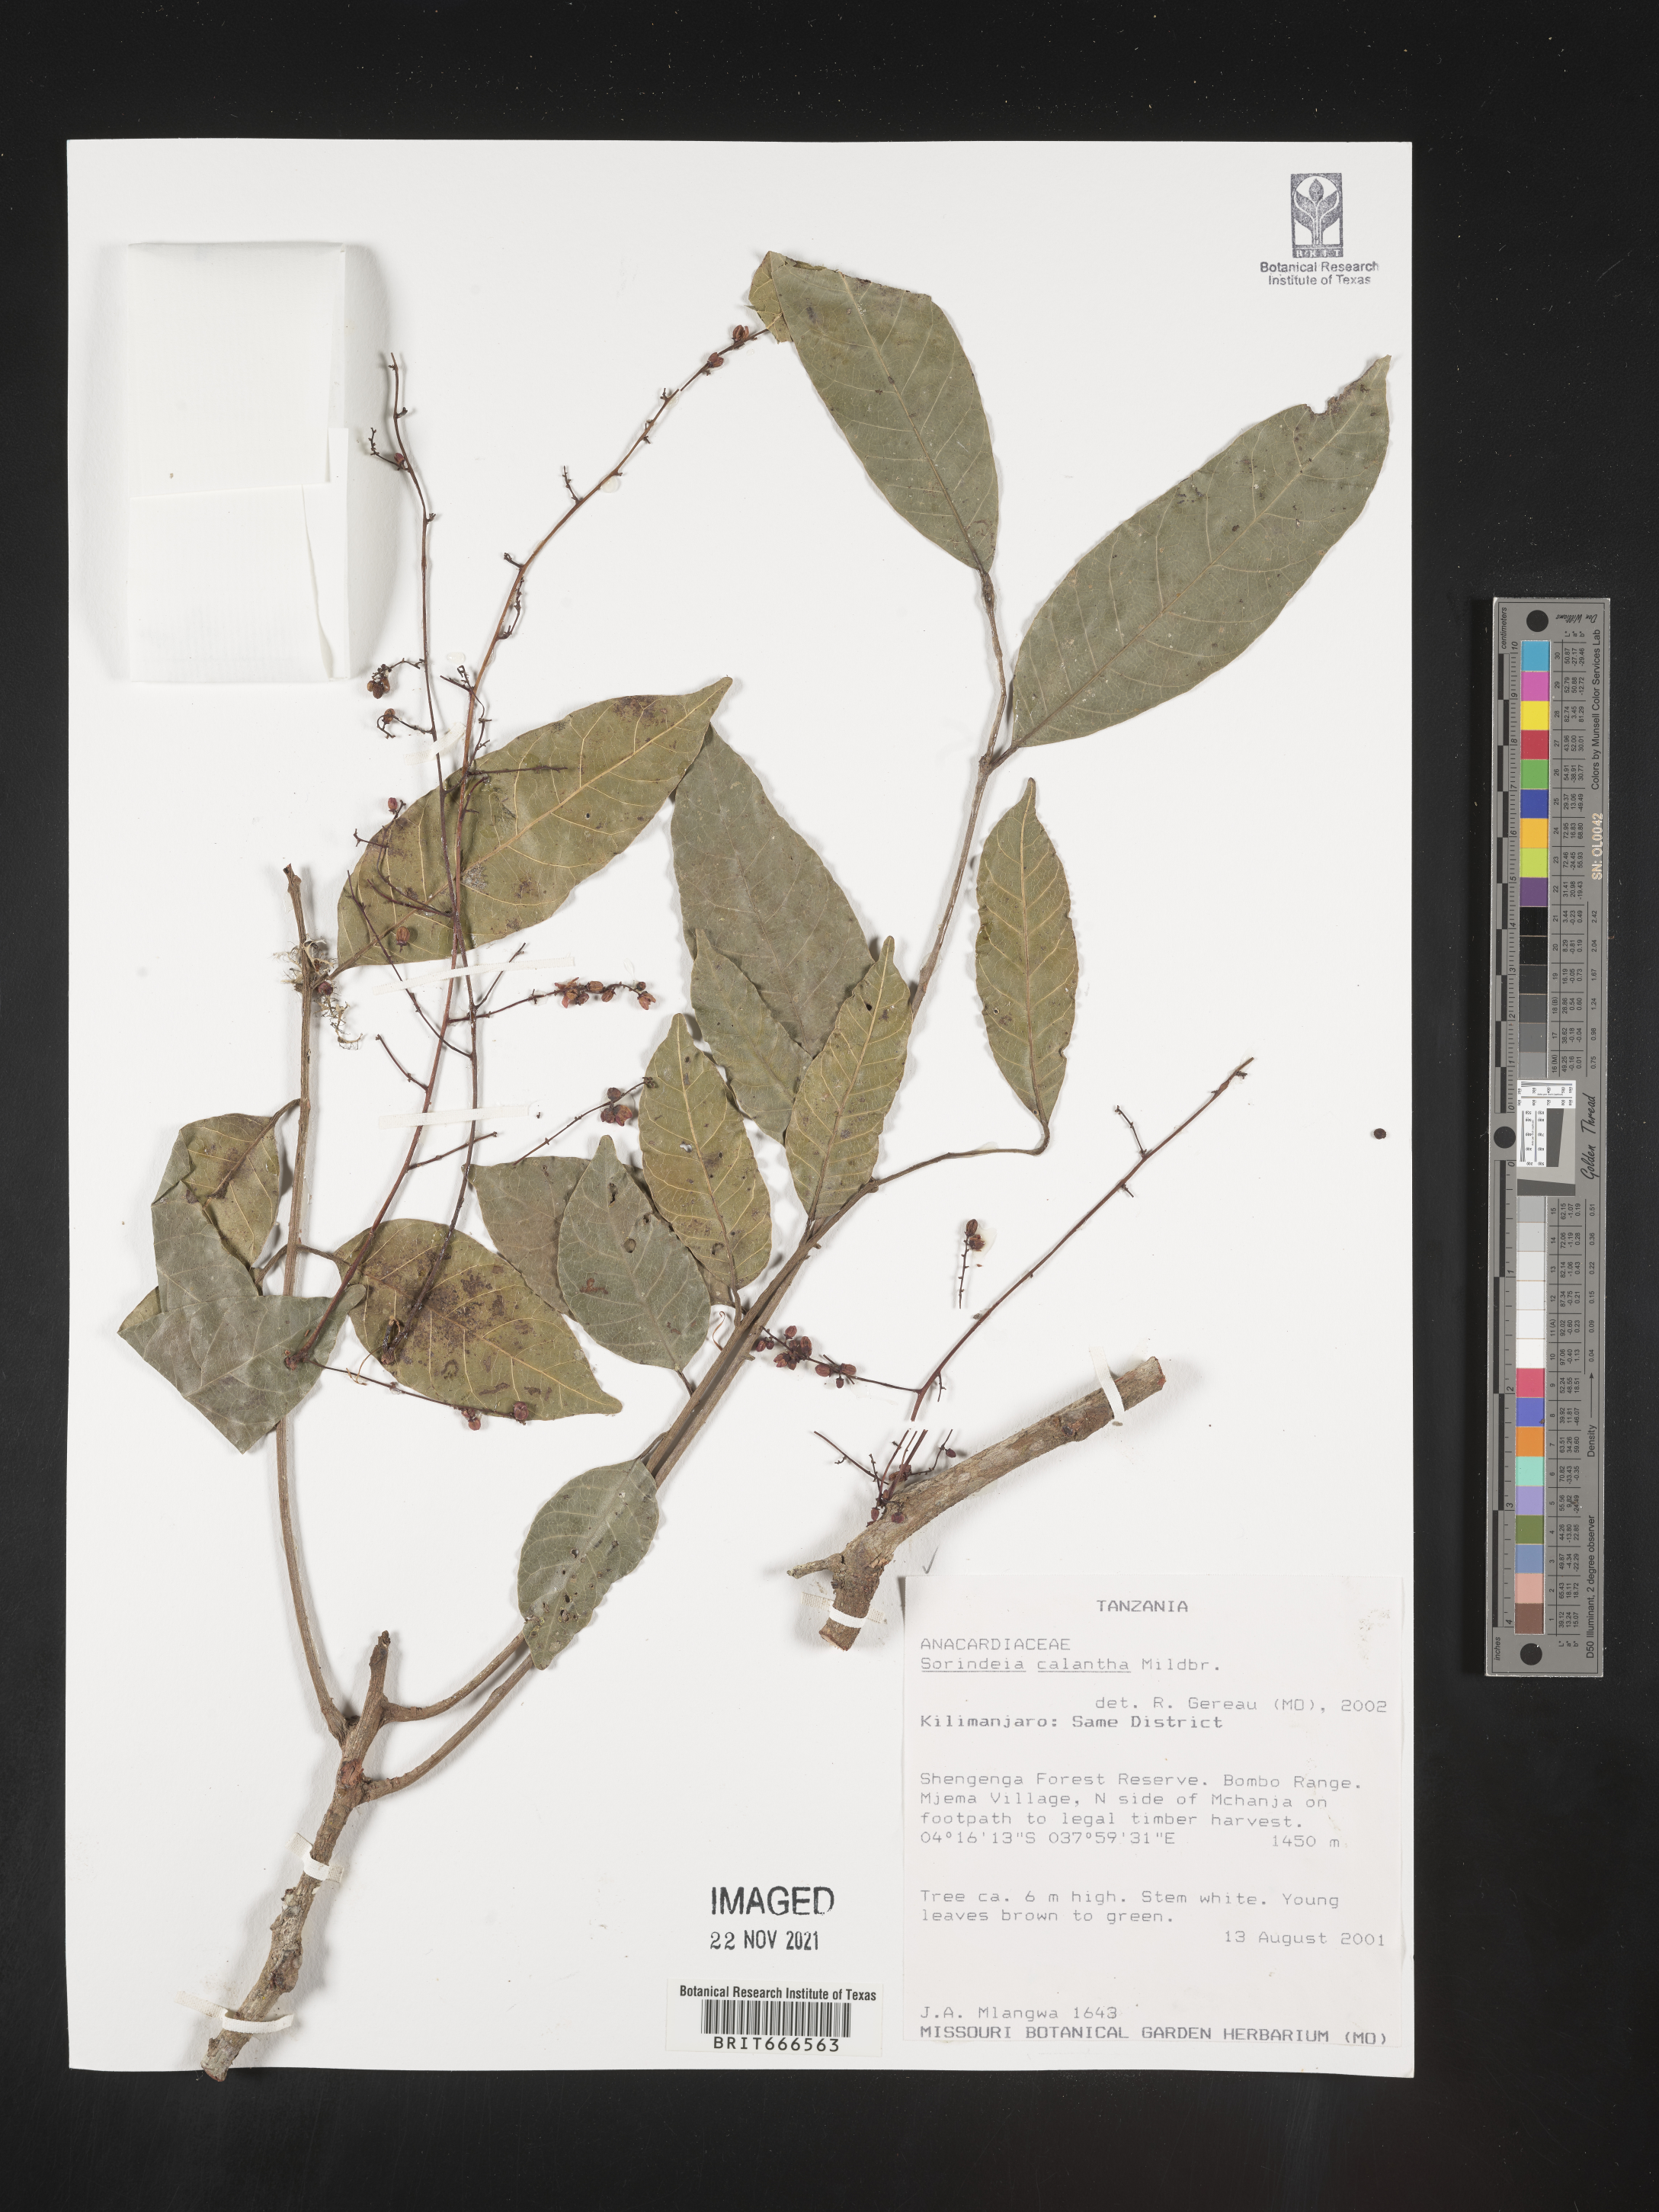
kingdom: Plantae
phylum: Tracheophyta
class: Magnoliopsida
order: Sapindales
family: Anacardiaceae
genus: Sorindeia
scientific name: Sorindeia
